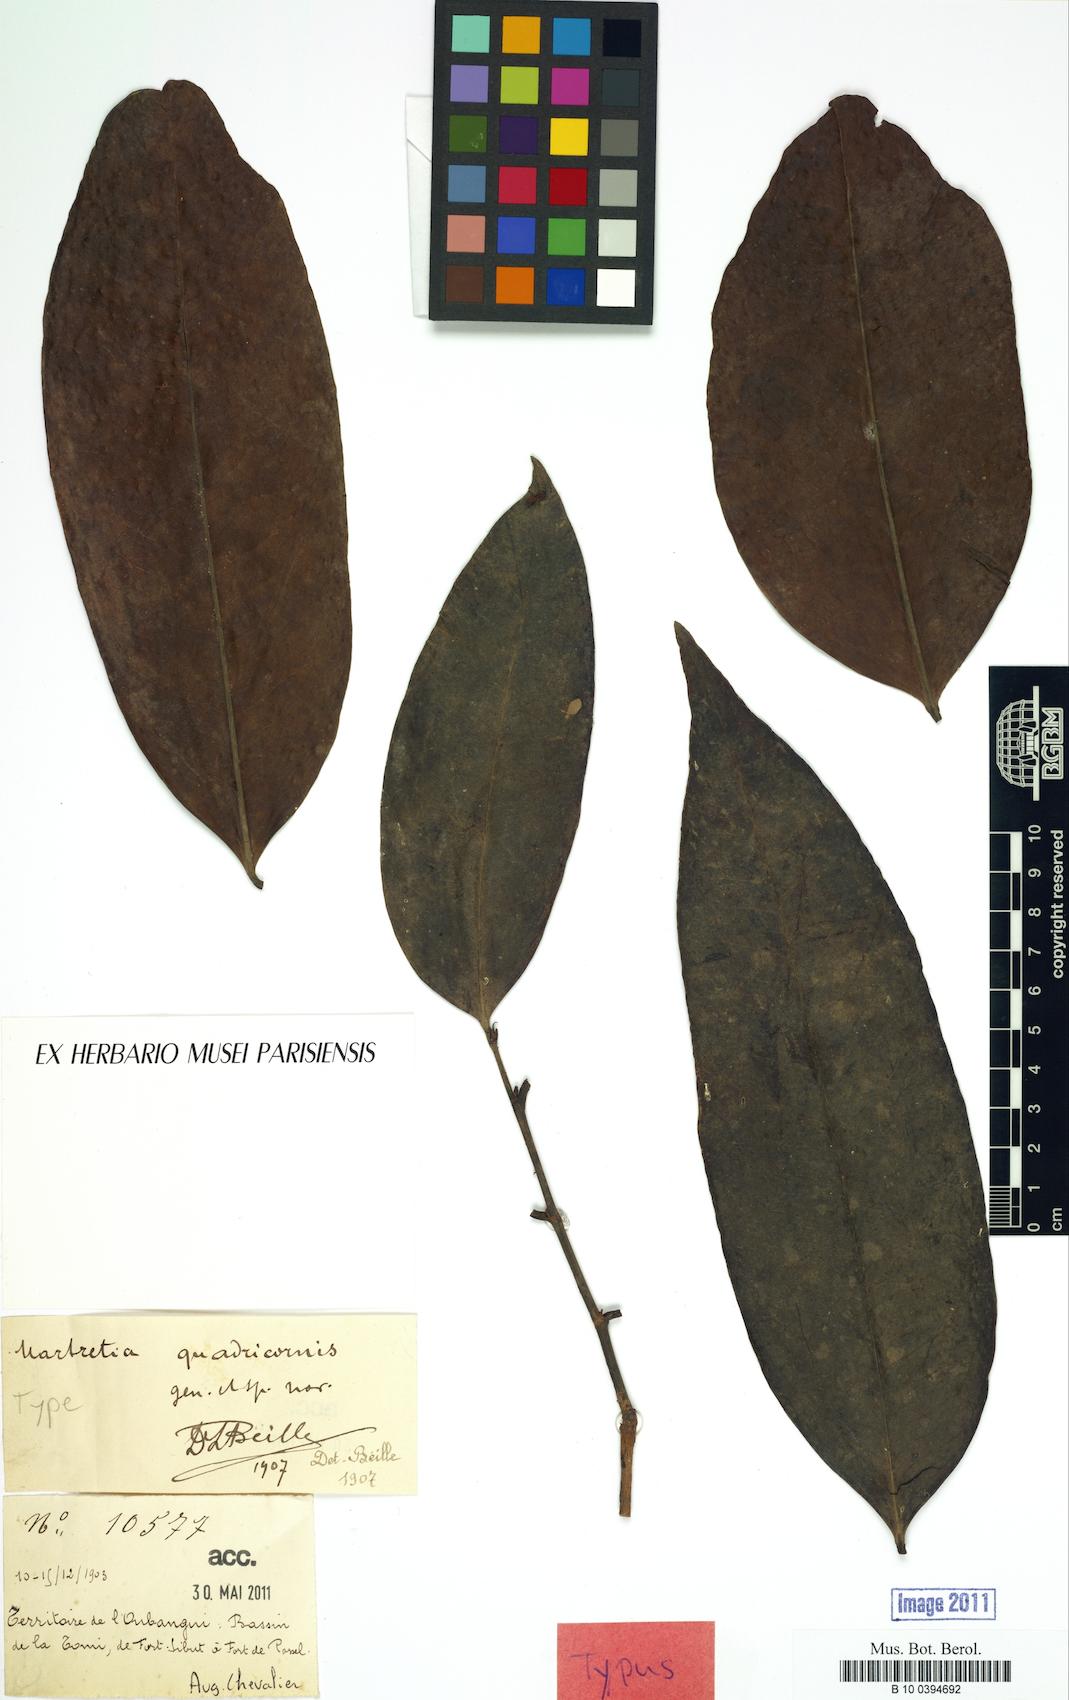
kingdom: Plantae
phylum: Tracheophyta
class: Magnoliopsida
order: Malpighiales
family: Phyllanthaceae
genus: Martretia
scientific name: Martretia quadricornis
